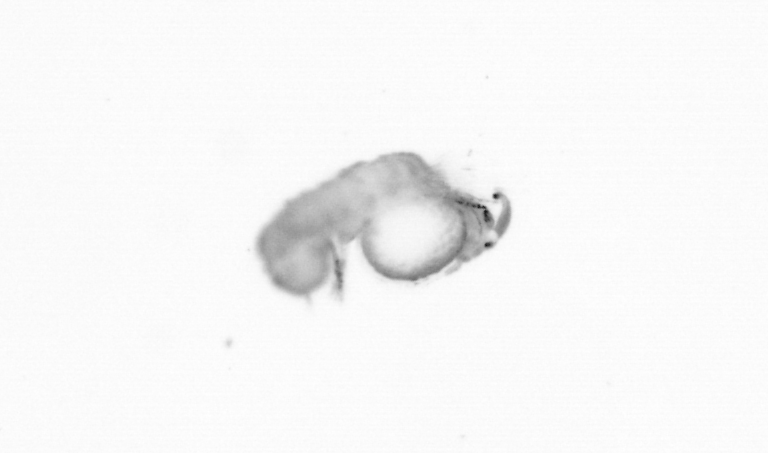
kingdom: Animalia
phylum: Annelida
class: Polychaeta
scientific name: Polychaeta
